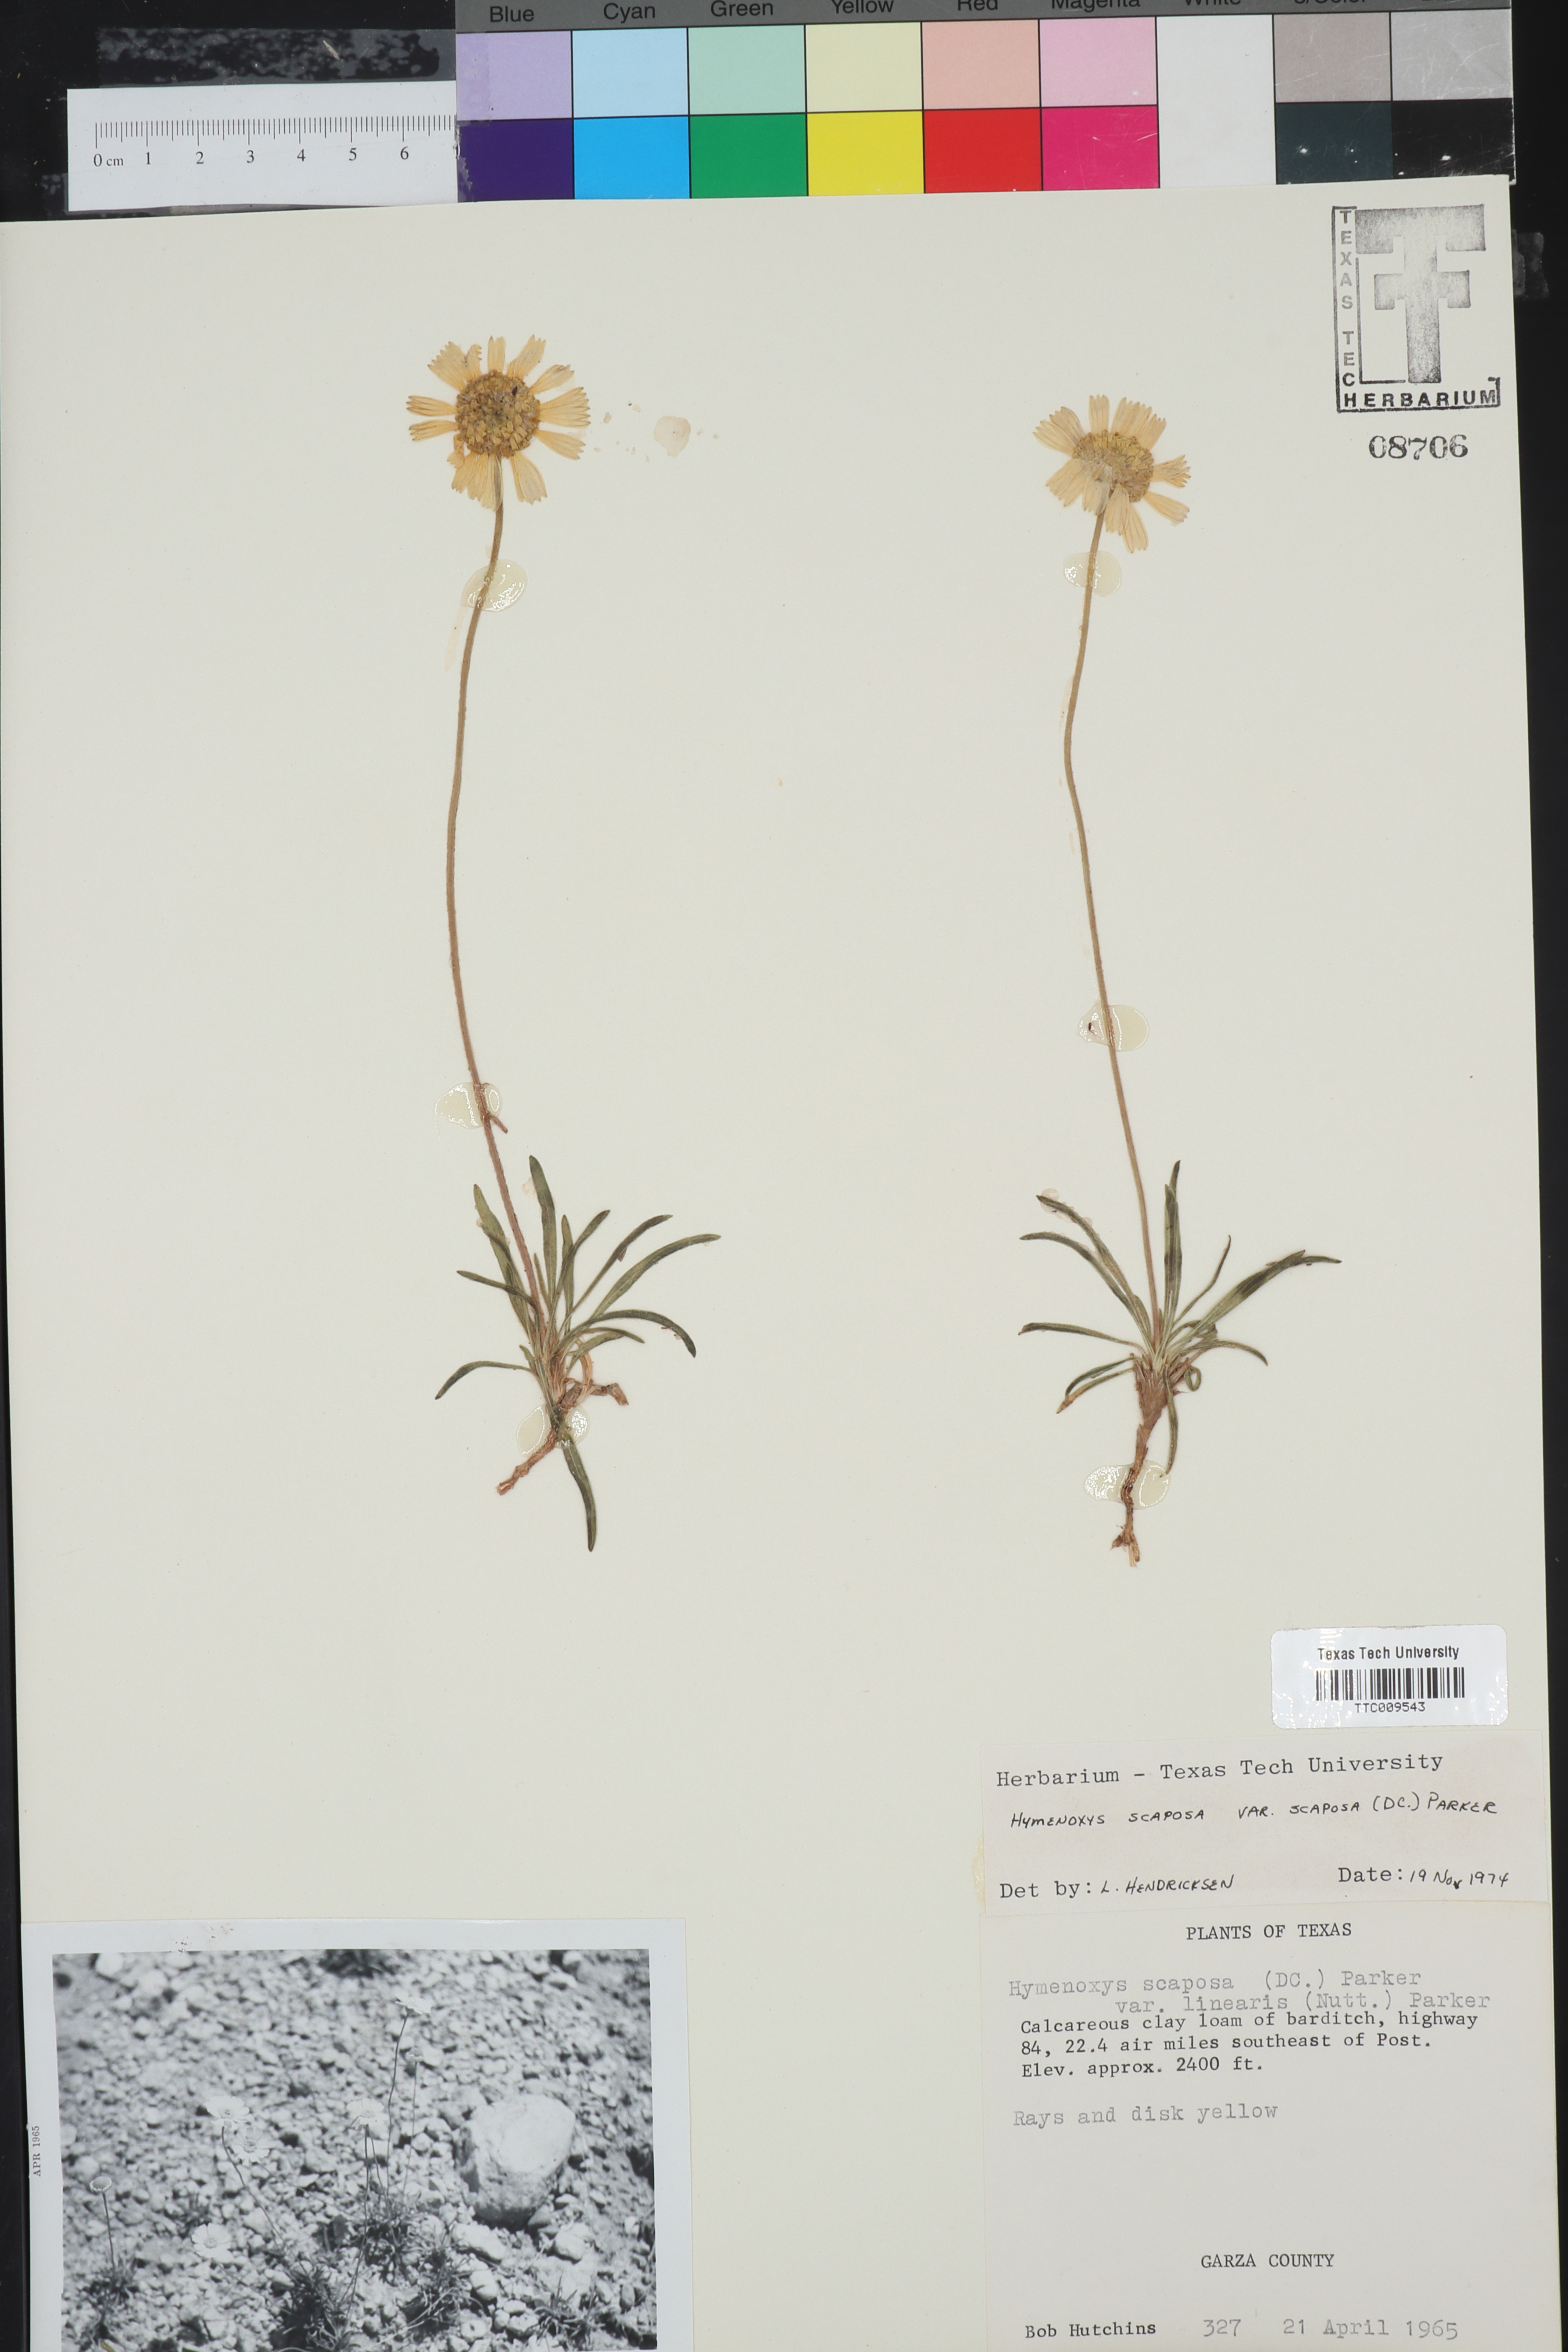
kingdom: Plantae
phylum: Tracheophyta
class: Magnoliopsida
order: Asterales
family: Asteraceae
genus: Tetraneuris
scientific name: Tetraneuris scaposa
